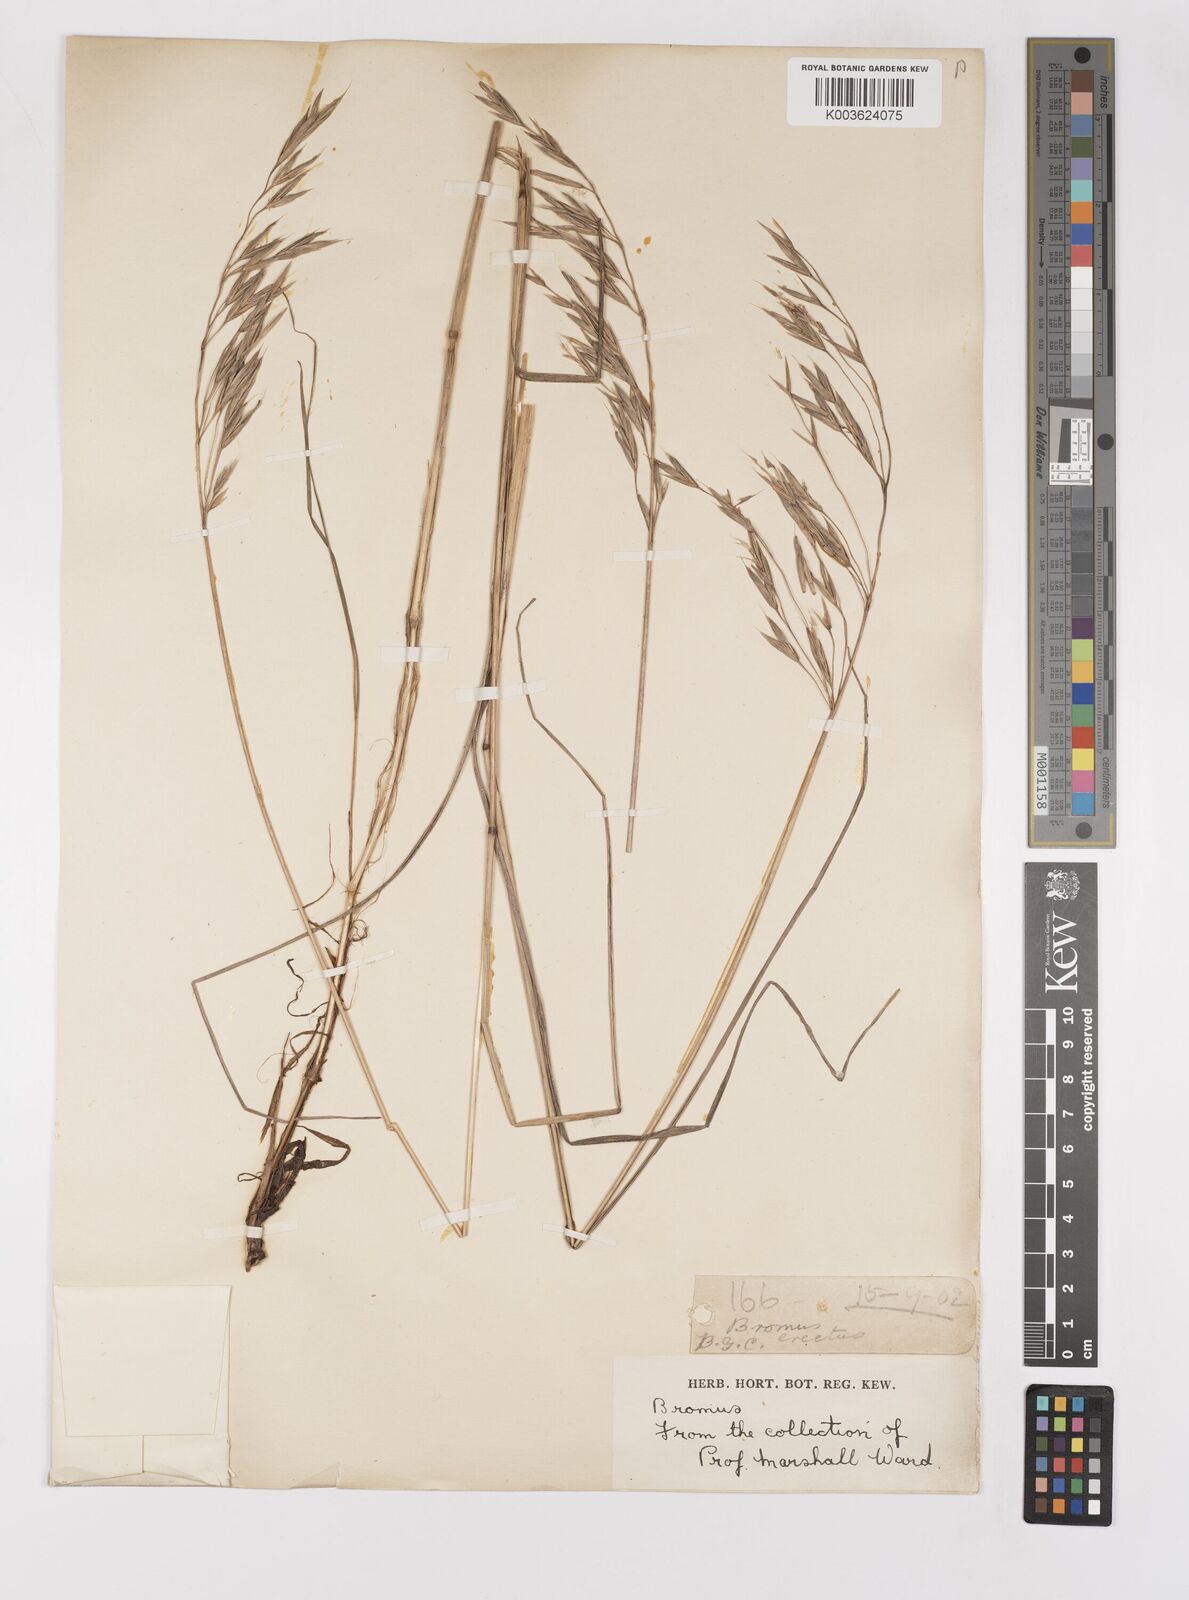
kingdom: Plantae
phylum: Tracheophyta
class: Liliopsida
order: Poales
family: Poaceae
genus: Bromus
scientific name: Bromus erectus
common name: Erect brome
